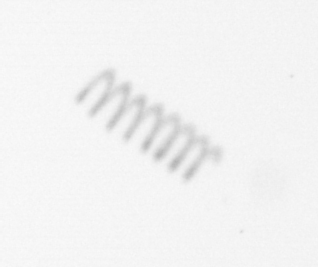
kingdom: Chromista
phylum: Ochrophyta
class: Bacillariophyceae
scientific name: Bacillariophyceae
